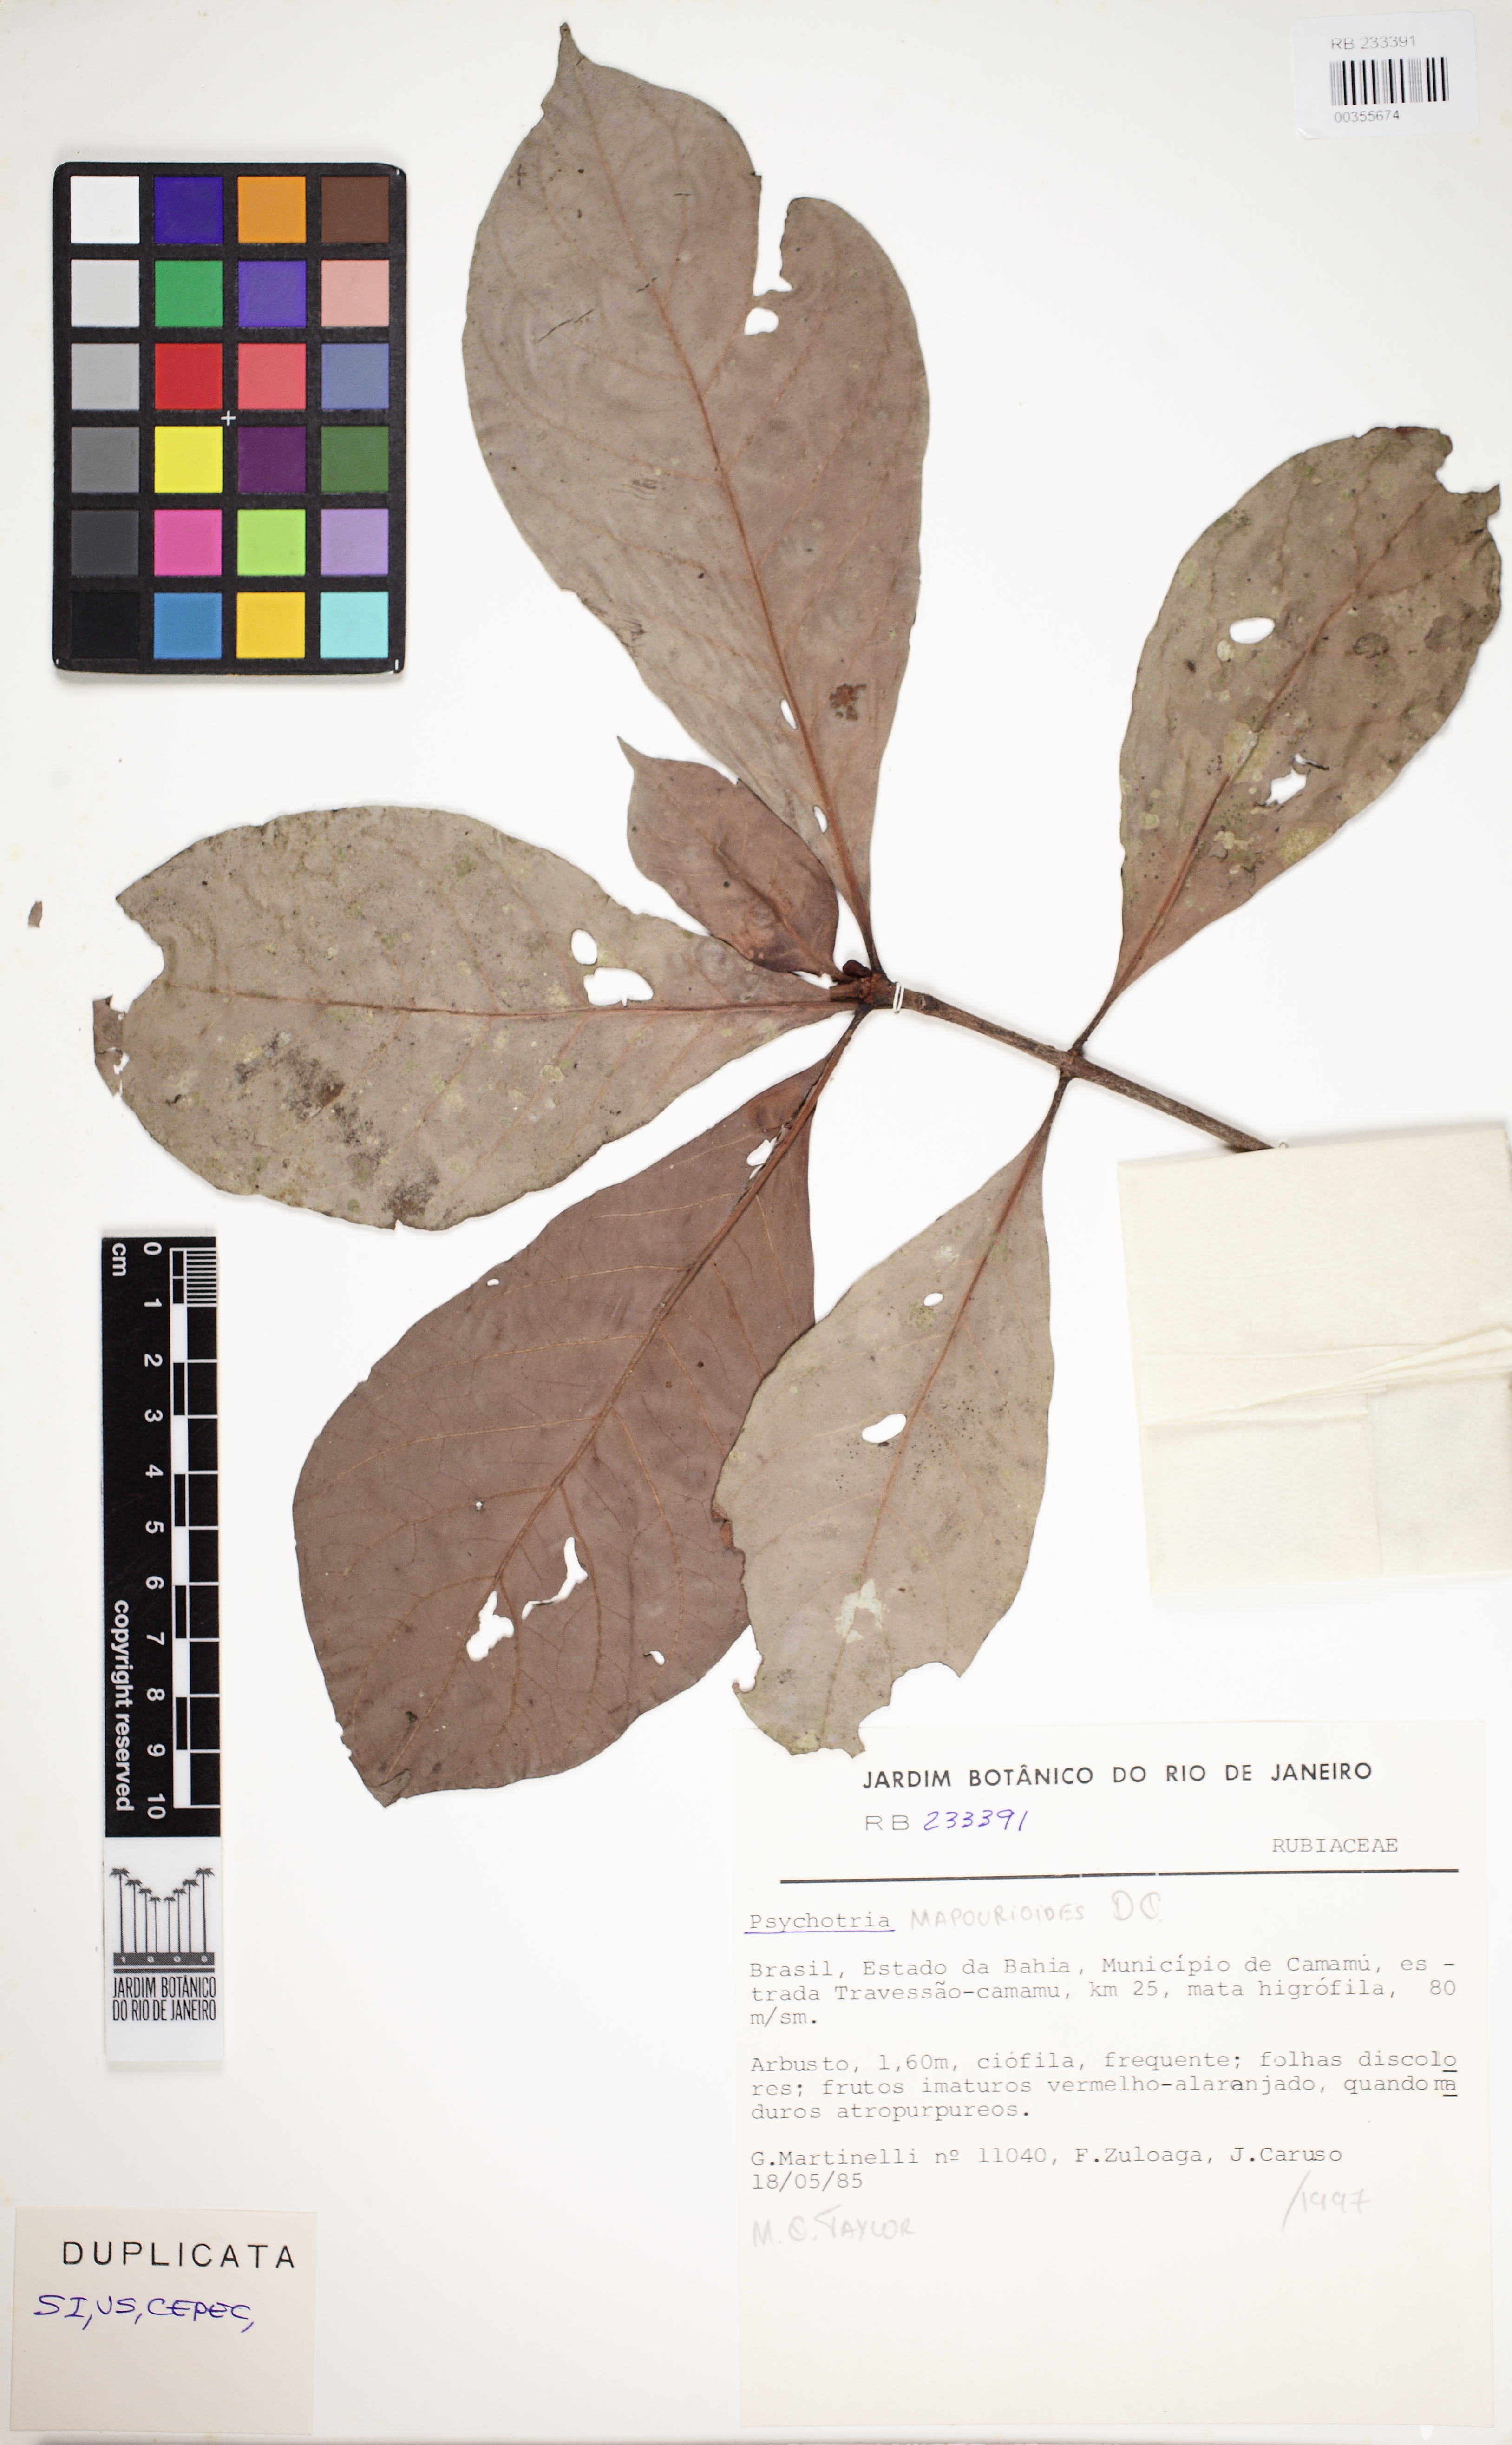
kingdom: Plantae
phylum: Tracheophyta
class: Magnoliopsida
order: Gentianales
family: Rubiaceae
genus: Psychotria
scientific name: Psychotria pedunculosa
